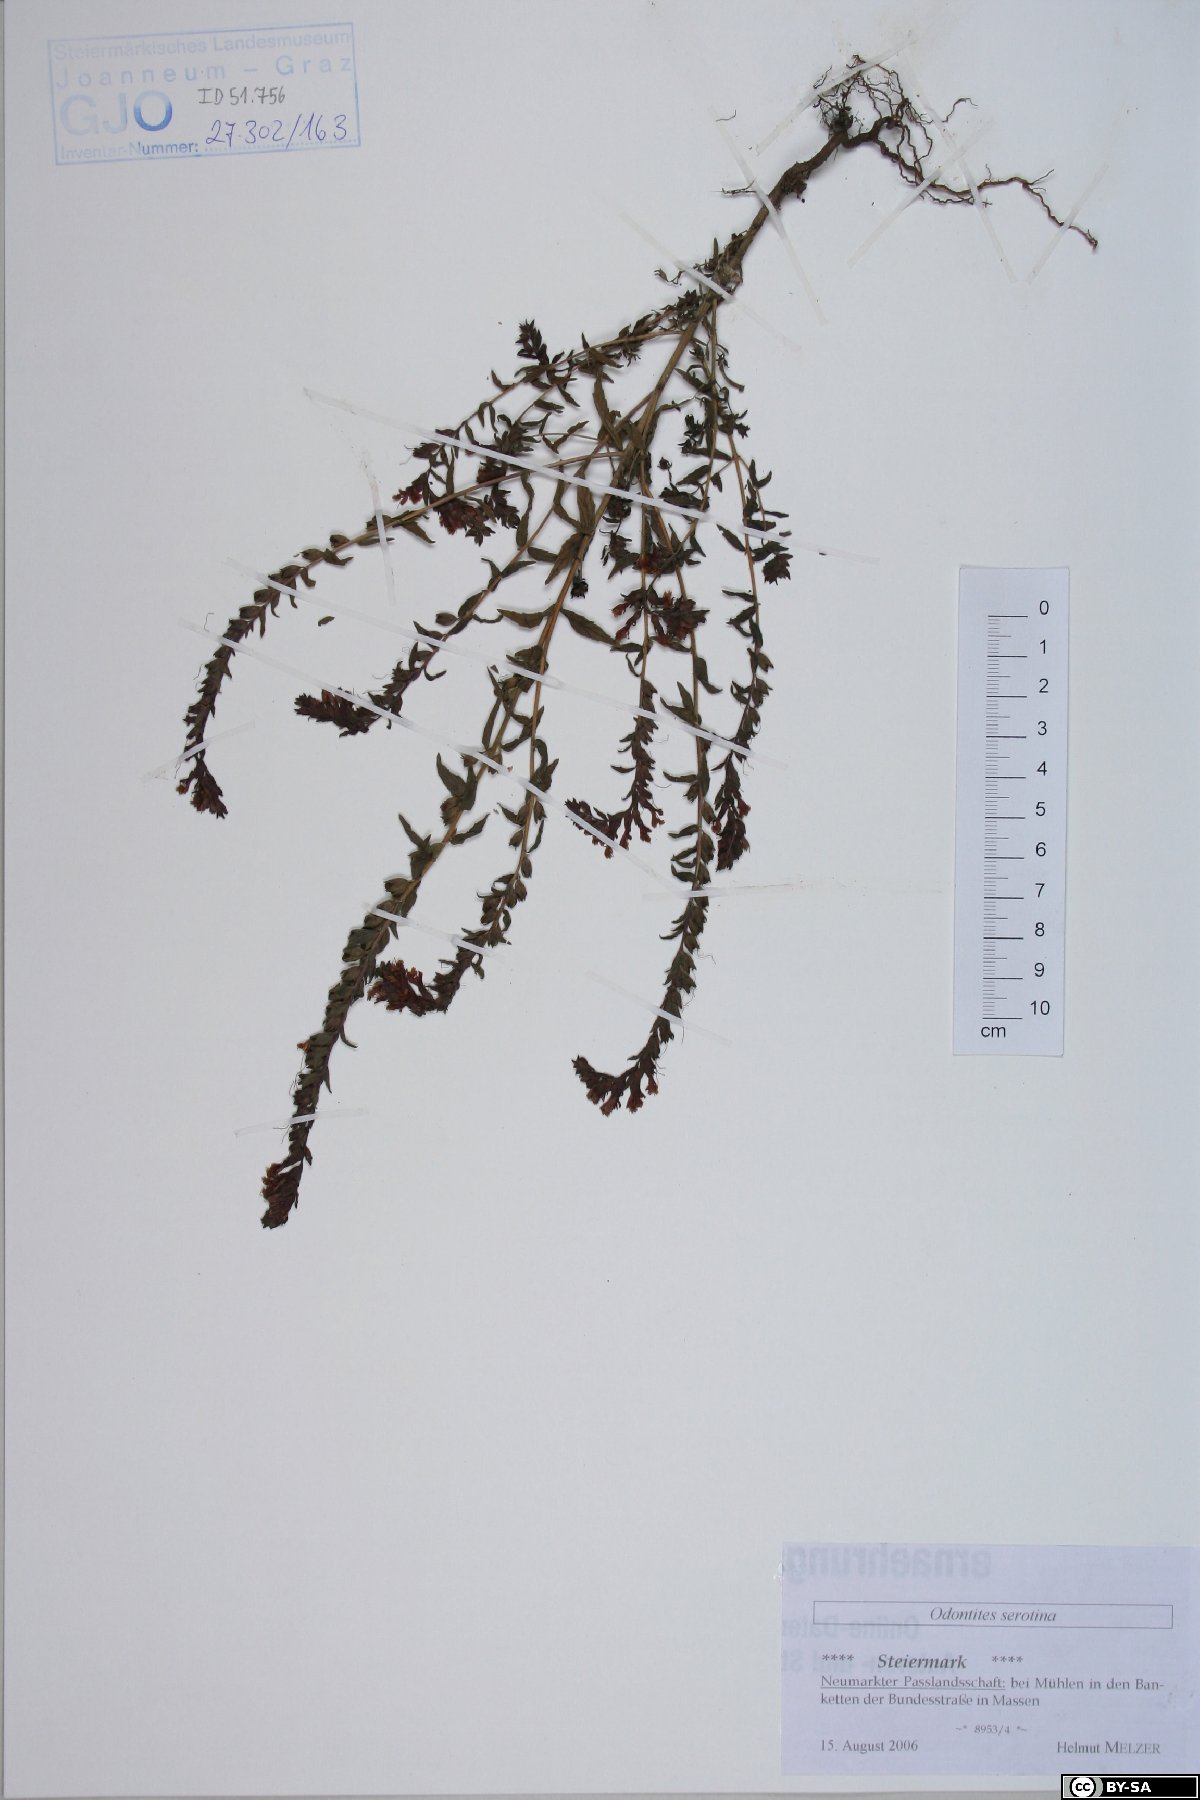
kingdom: Plantae
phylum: Tracheophyta
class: Magnoliopsida
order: Lamiales
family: Orobanchaceae
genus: Odontites
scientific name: Odontites vulgaris
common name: Broomrape
